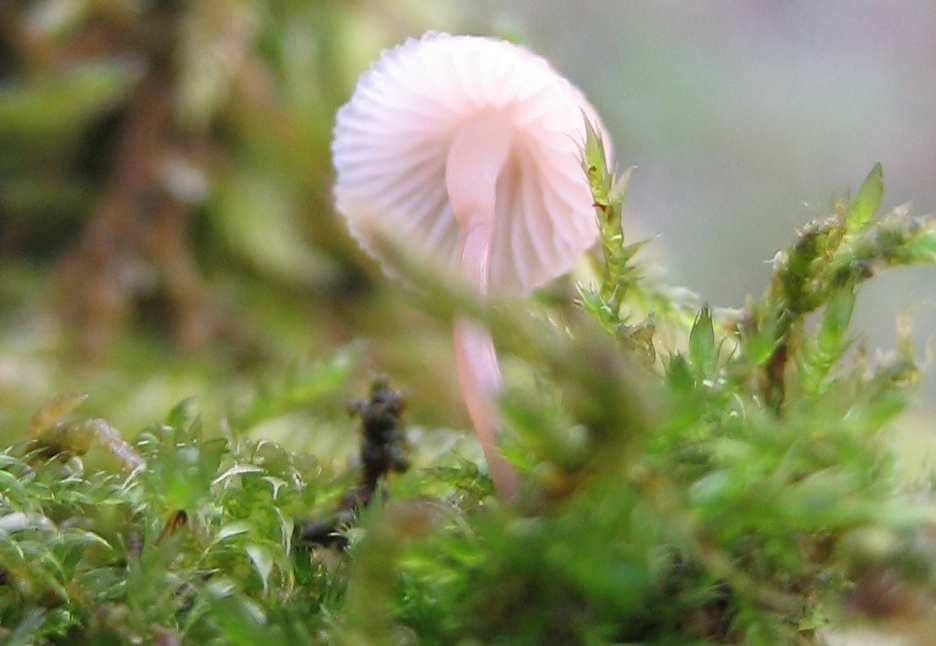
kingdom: Fungi
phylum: Basidiomycota
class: Agaricomycetes
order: Agaricales
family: Mycenaceae
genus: Mycena
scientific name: Mycena
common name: huesvamp
